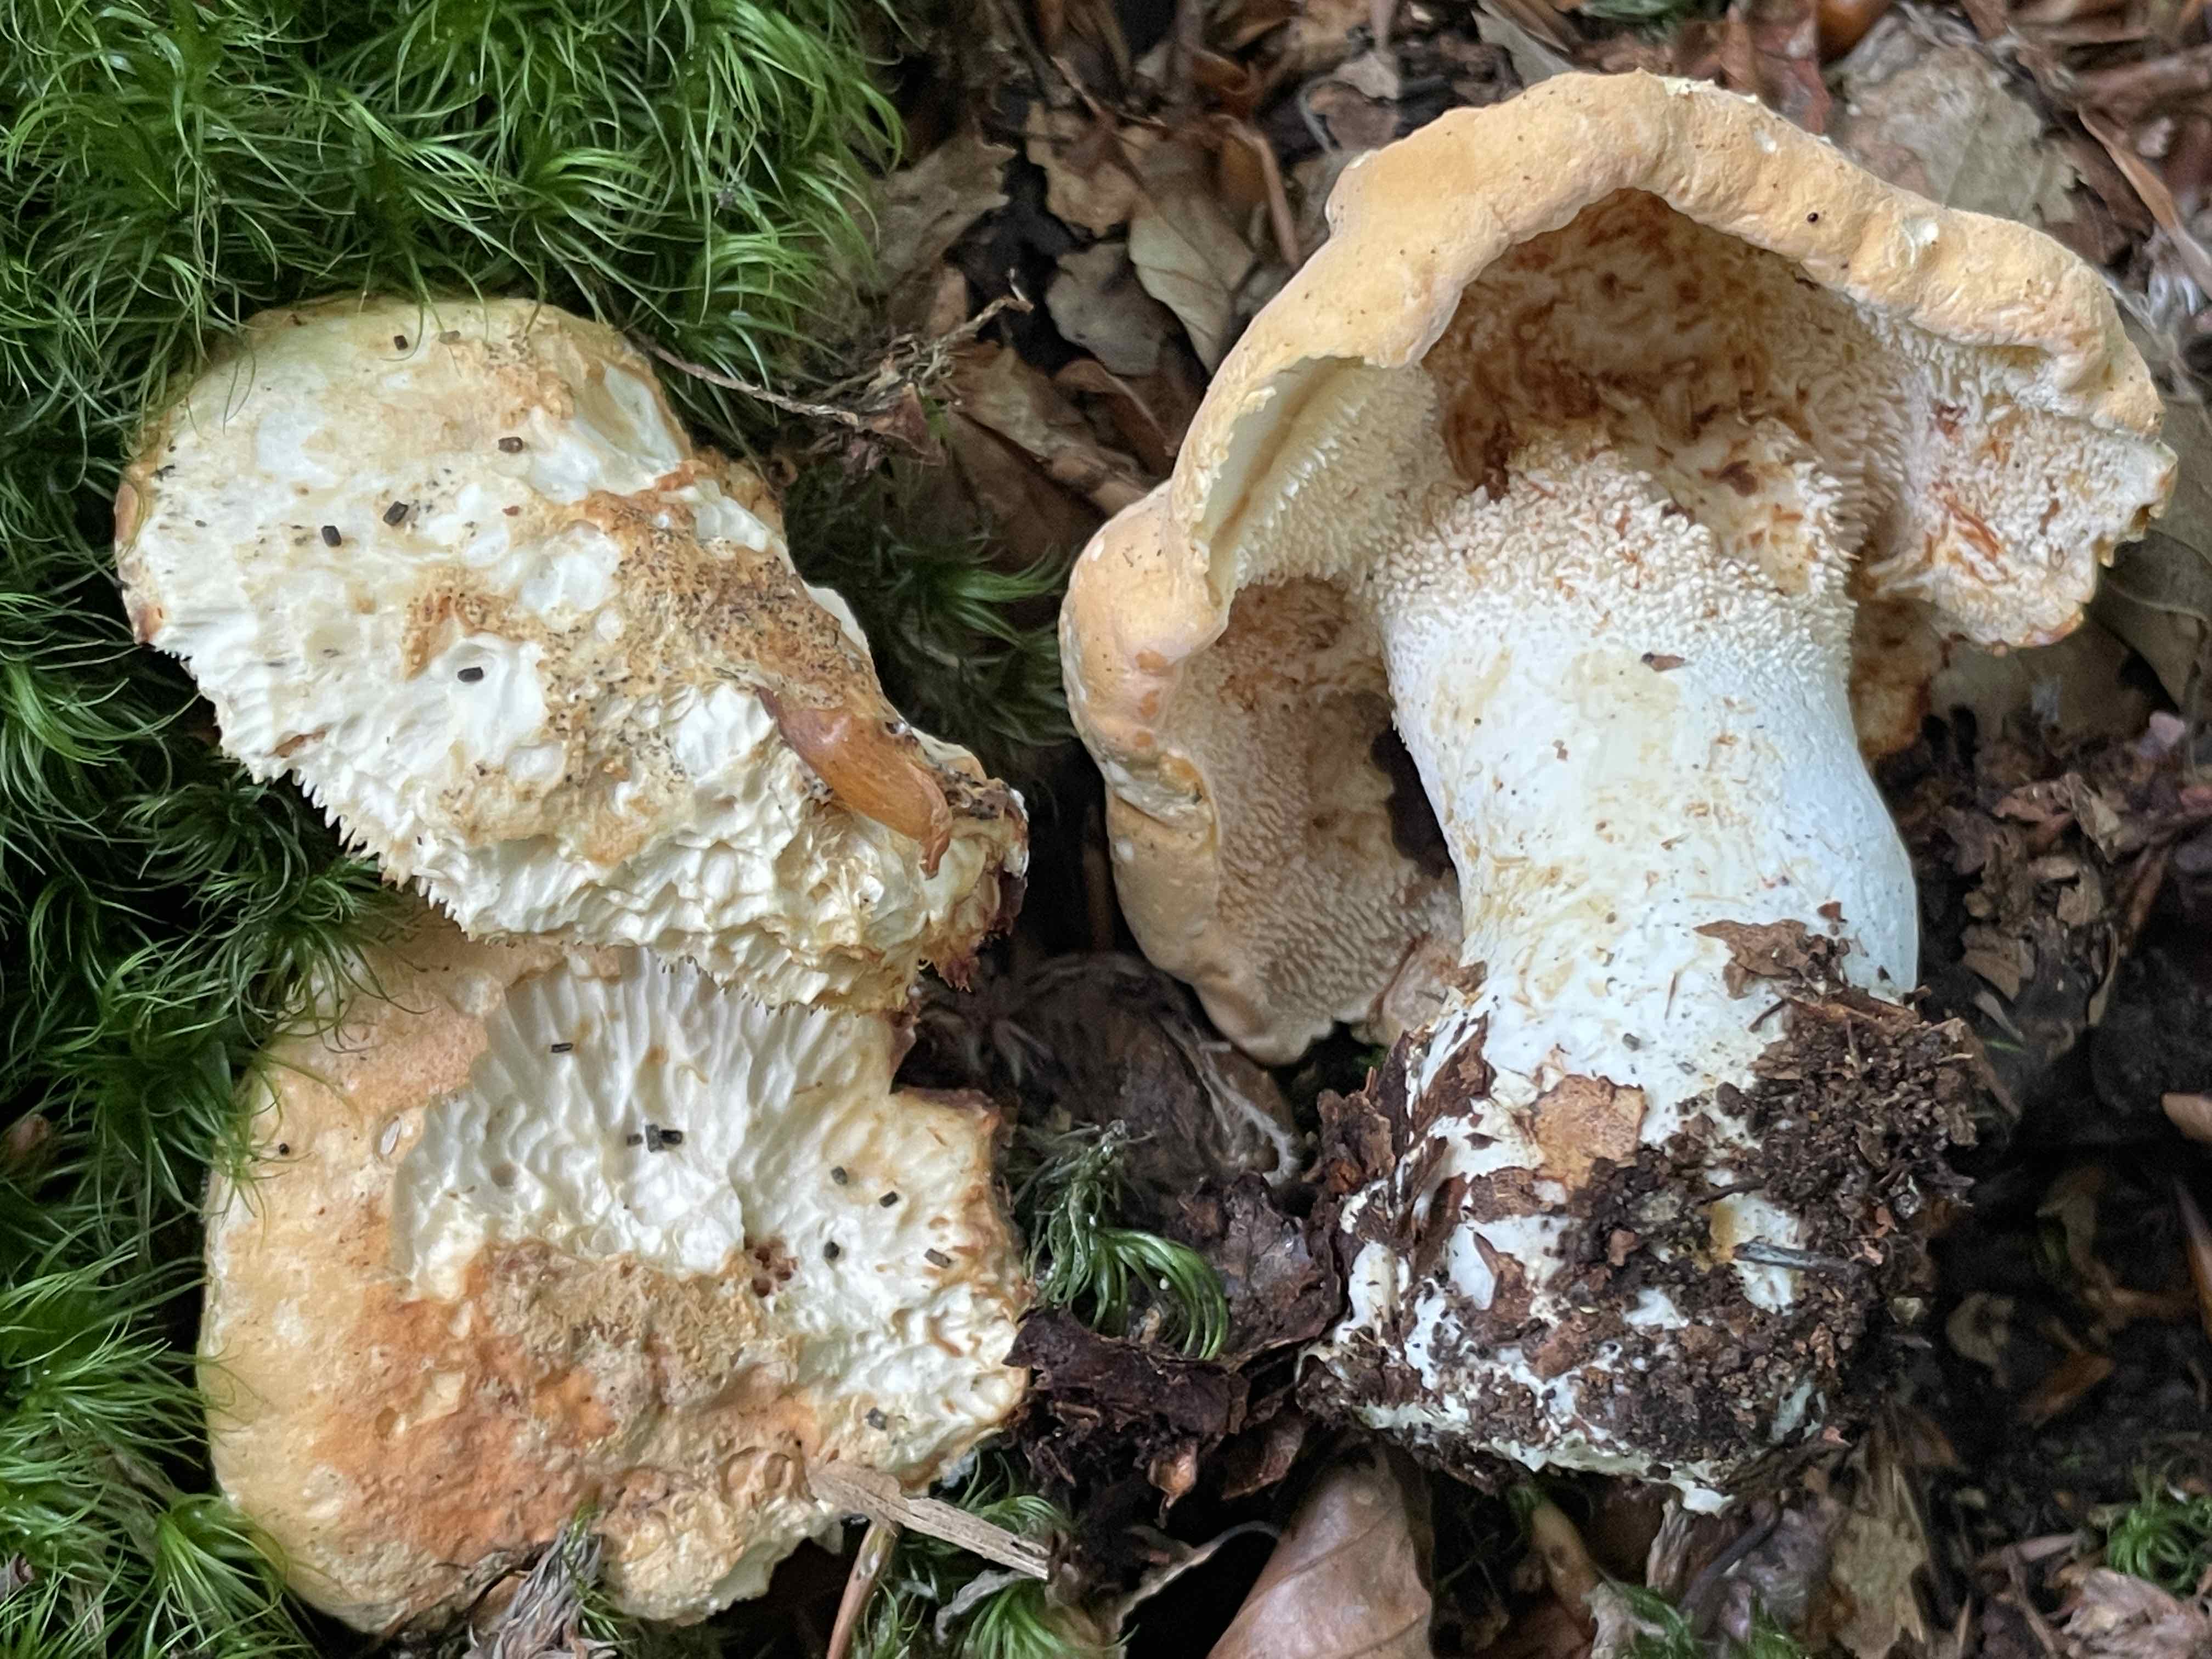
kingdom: Fungi
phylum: Basidiomycota
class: Agaricomycetes
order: Cantharellales
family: Hydnaceae
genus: Hydnum
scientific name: Hydnum rufescens
